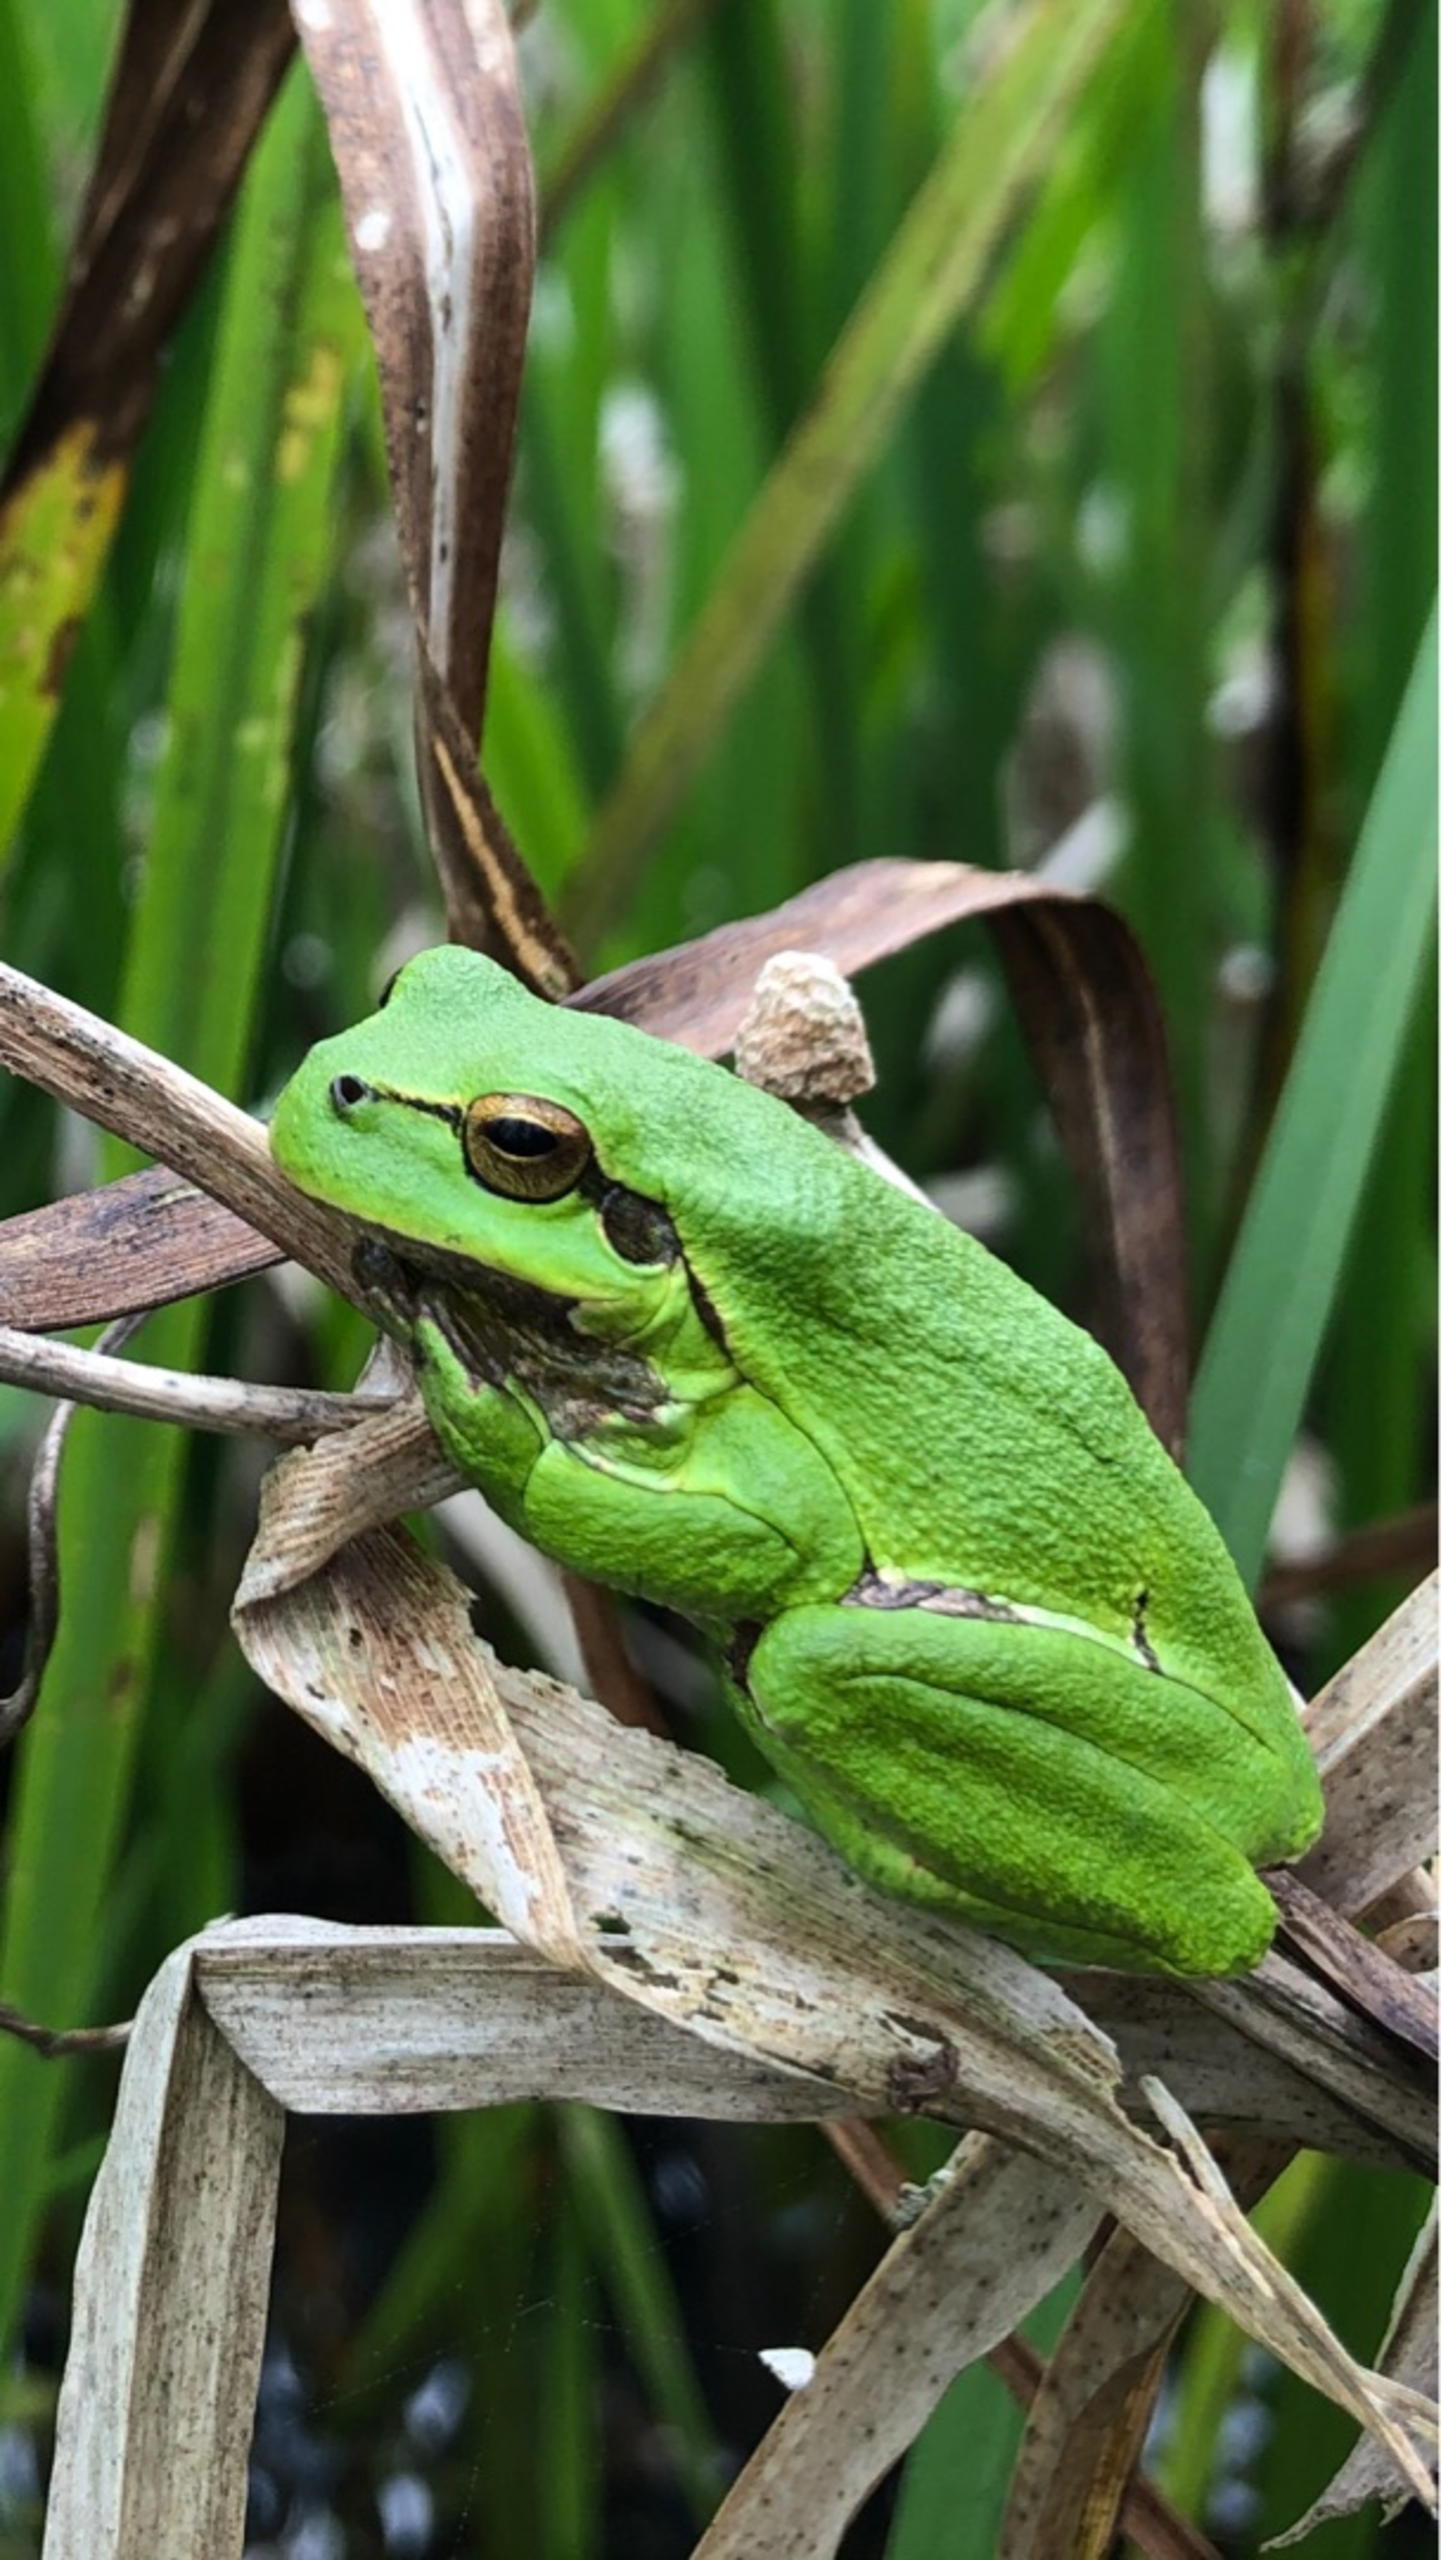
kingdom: Animalia
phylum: Chordata
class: Amphibia
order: Anura
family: Hylidae
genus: Hyla
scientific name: Hyla arborea
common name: Løvfrø
